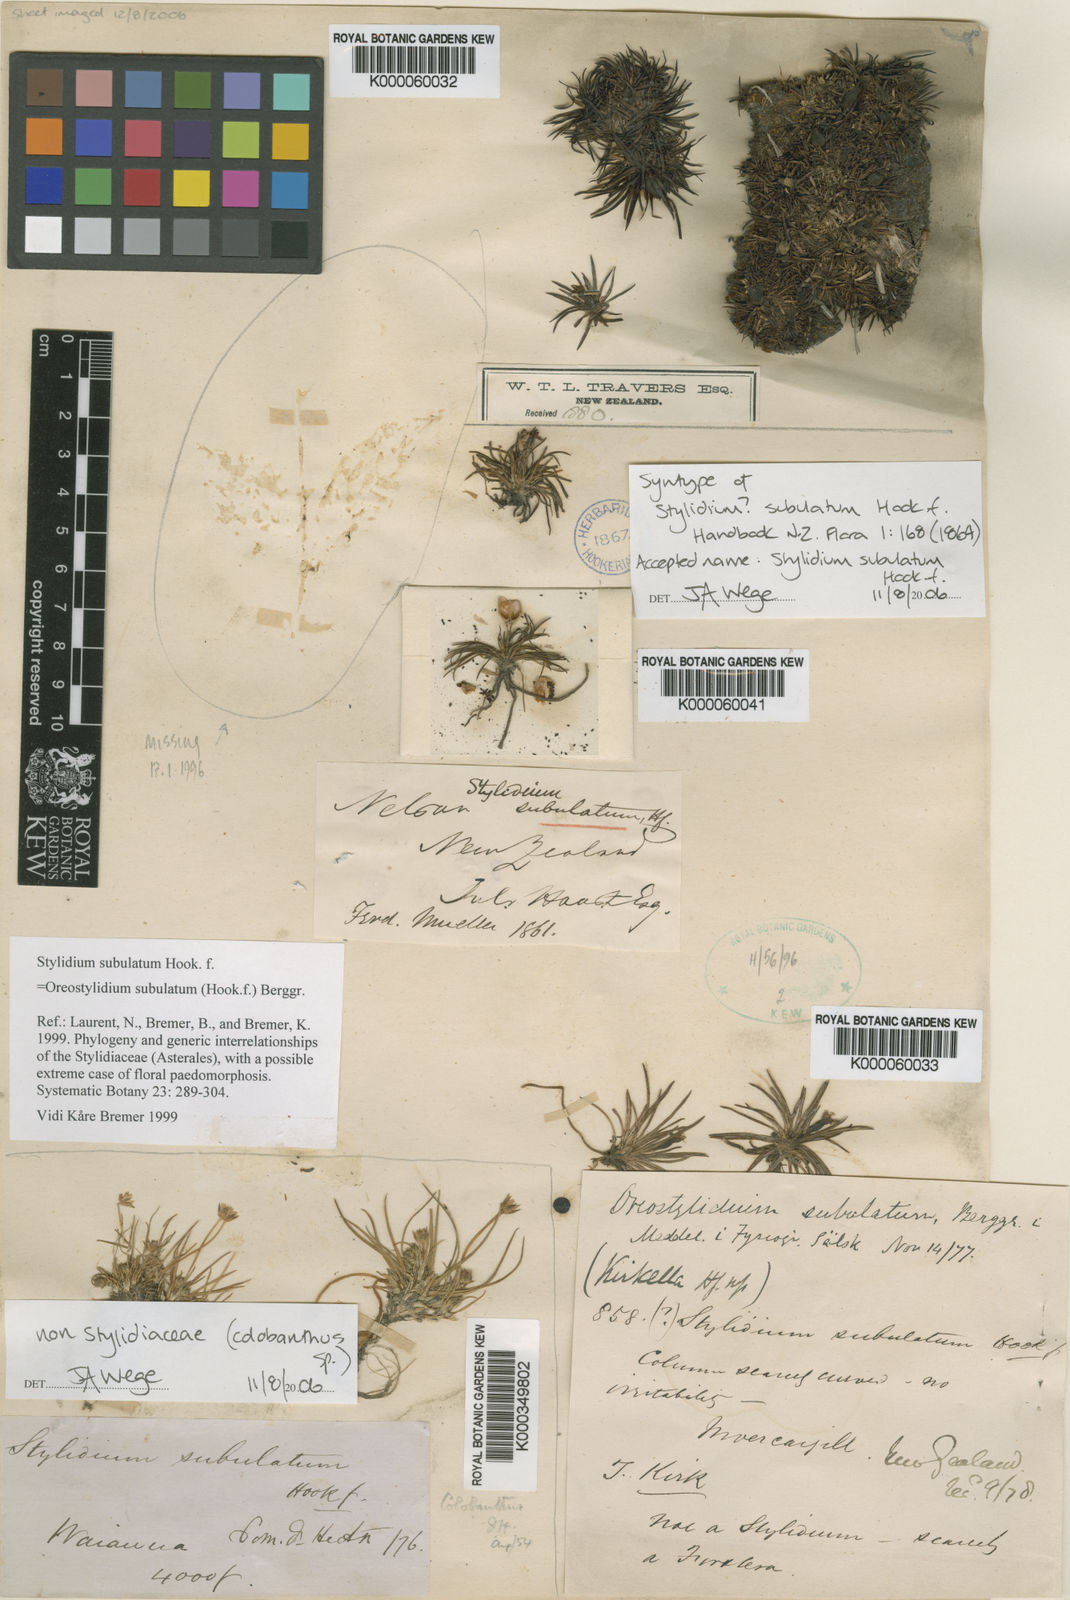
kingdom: Plantae
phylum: Tracheophyta
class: Magnoliopsida
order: Asterales
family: Stylidiaceae
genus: Oreostylidium
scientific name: Oreostylidium subulatum
